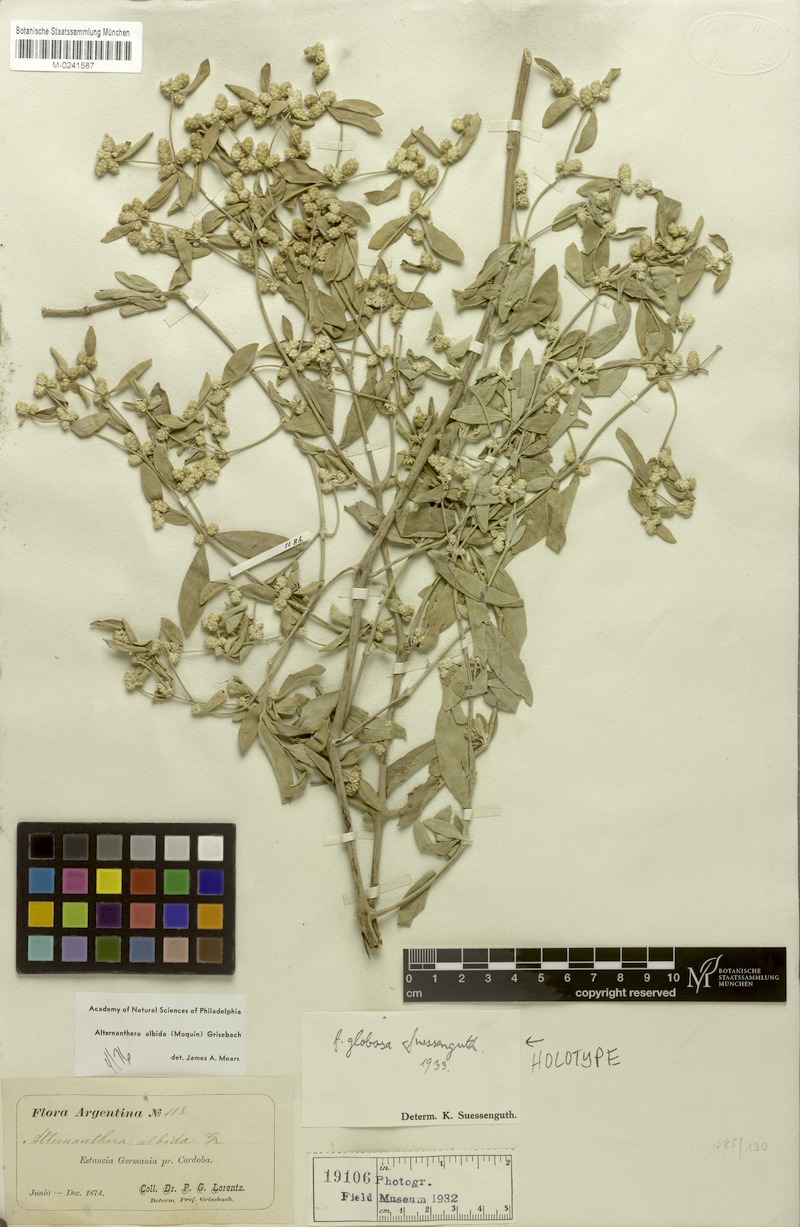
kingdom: Plantae
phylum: Tracheophyta
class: Magnoliopsida
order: Caryophyllales
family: Amaranthaceae
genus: Alternanthera
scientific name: Alternanthera albida
